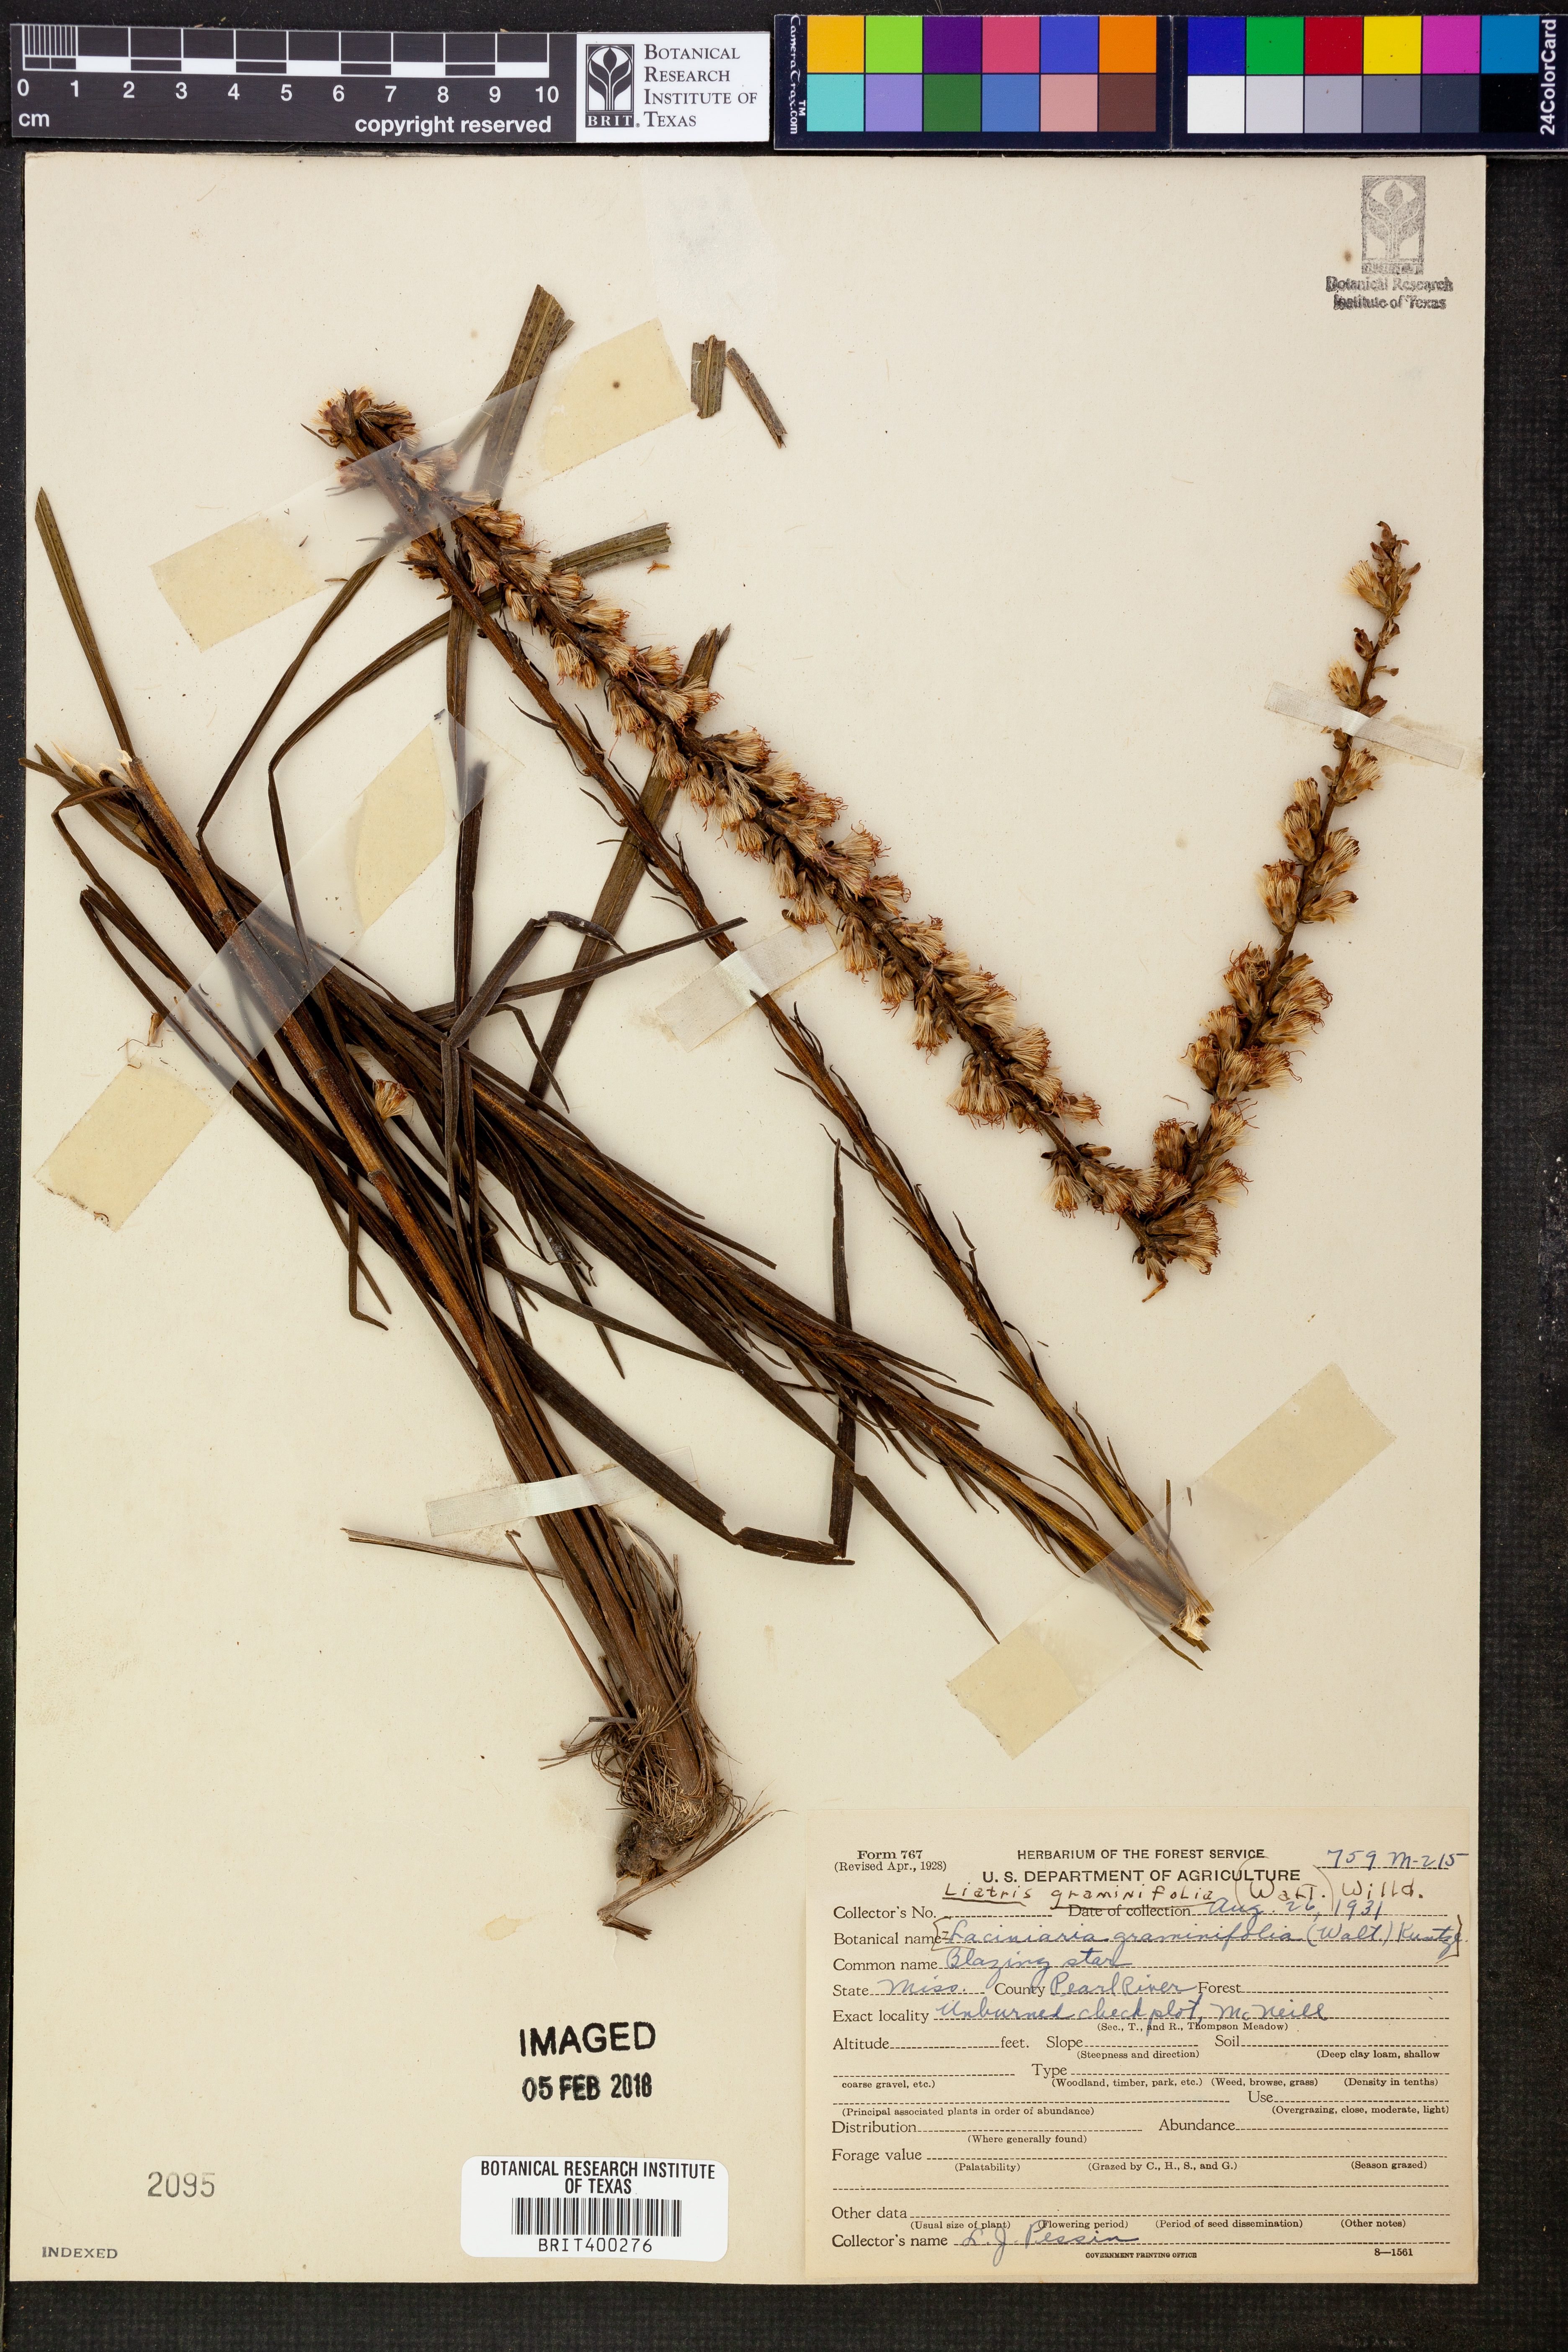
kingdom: Plantae
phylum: Tracheophyta
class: Magnoliopsida
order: Asterales
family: Asteraceae
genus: Liatris
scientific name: Liatris pilosa
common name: Grass-leaf gayfeather
